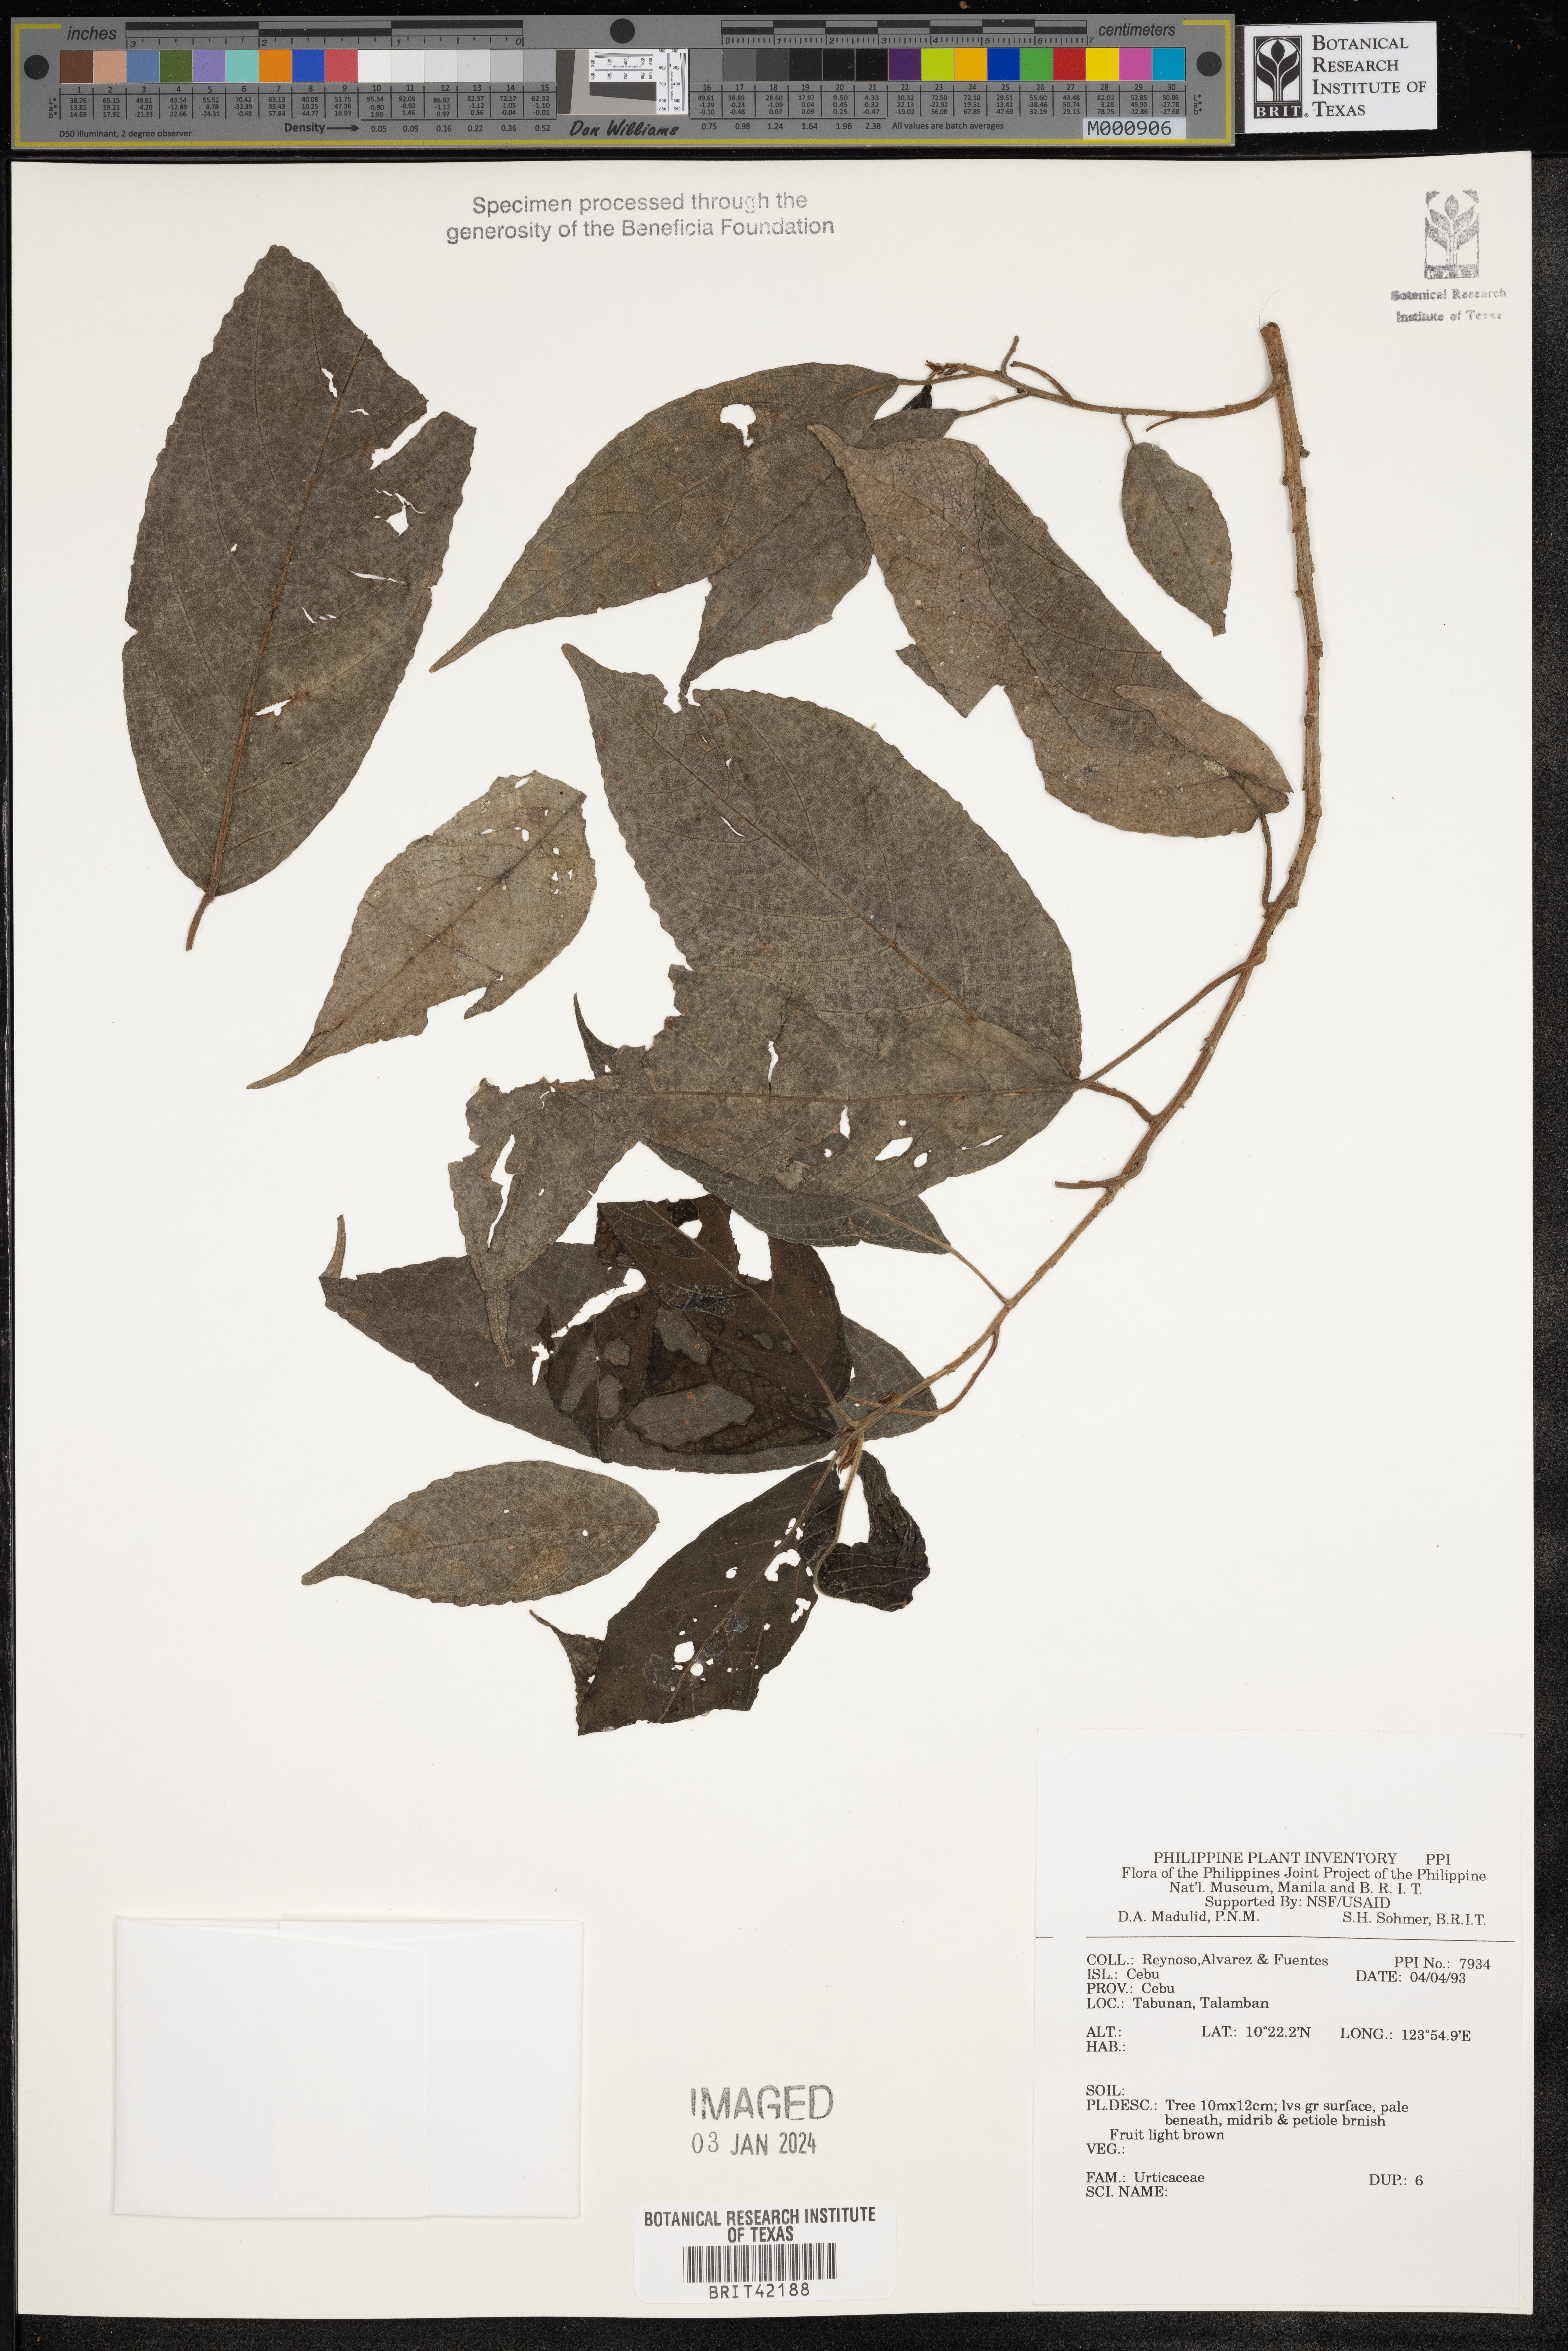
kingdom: Plantae
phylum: Tracheophyta
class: Magnoliopsida
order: Rosales
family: Urticaceae
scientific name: Urticaceae
